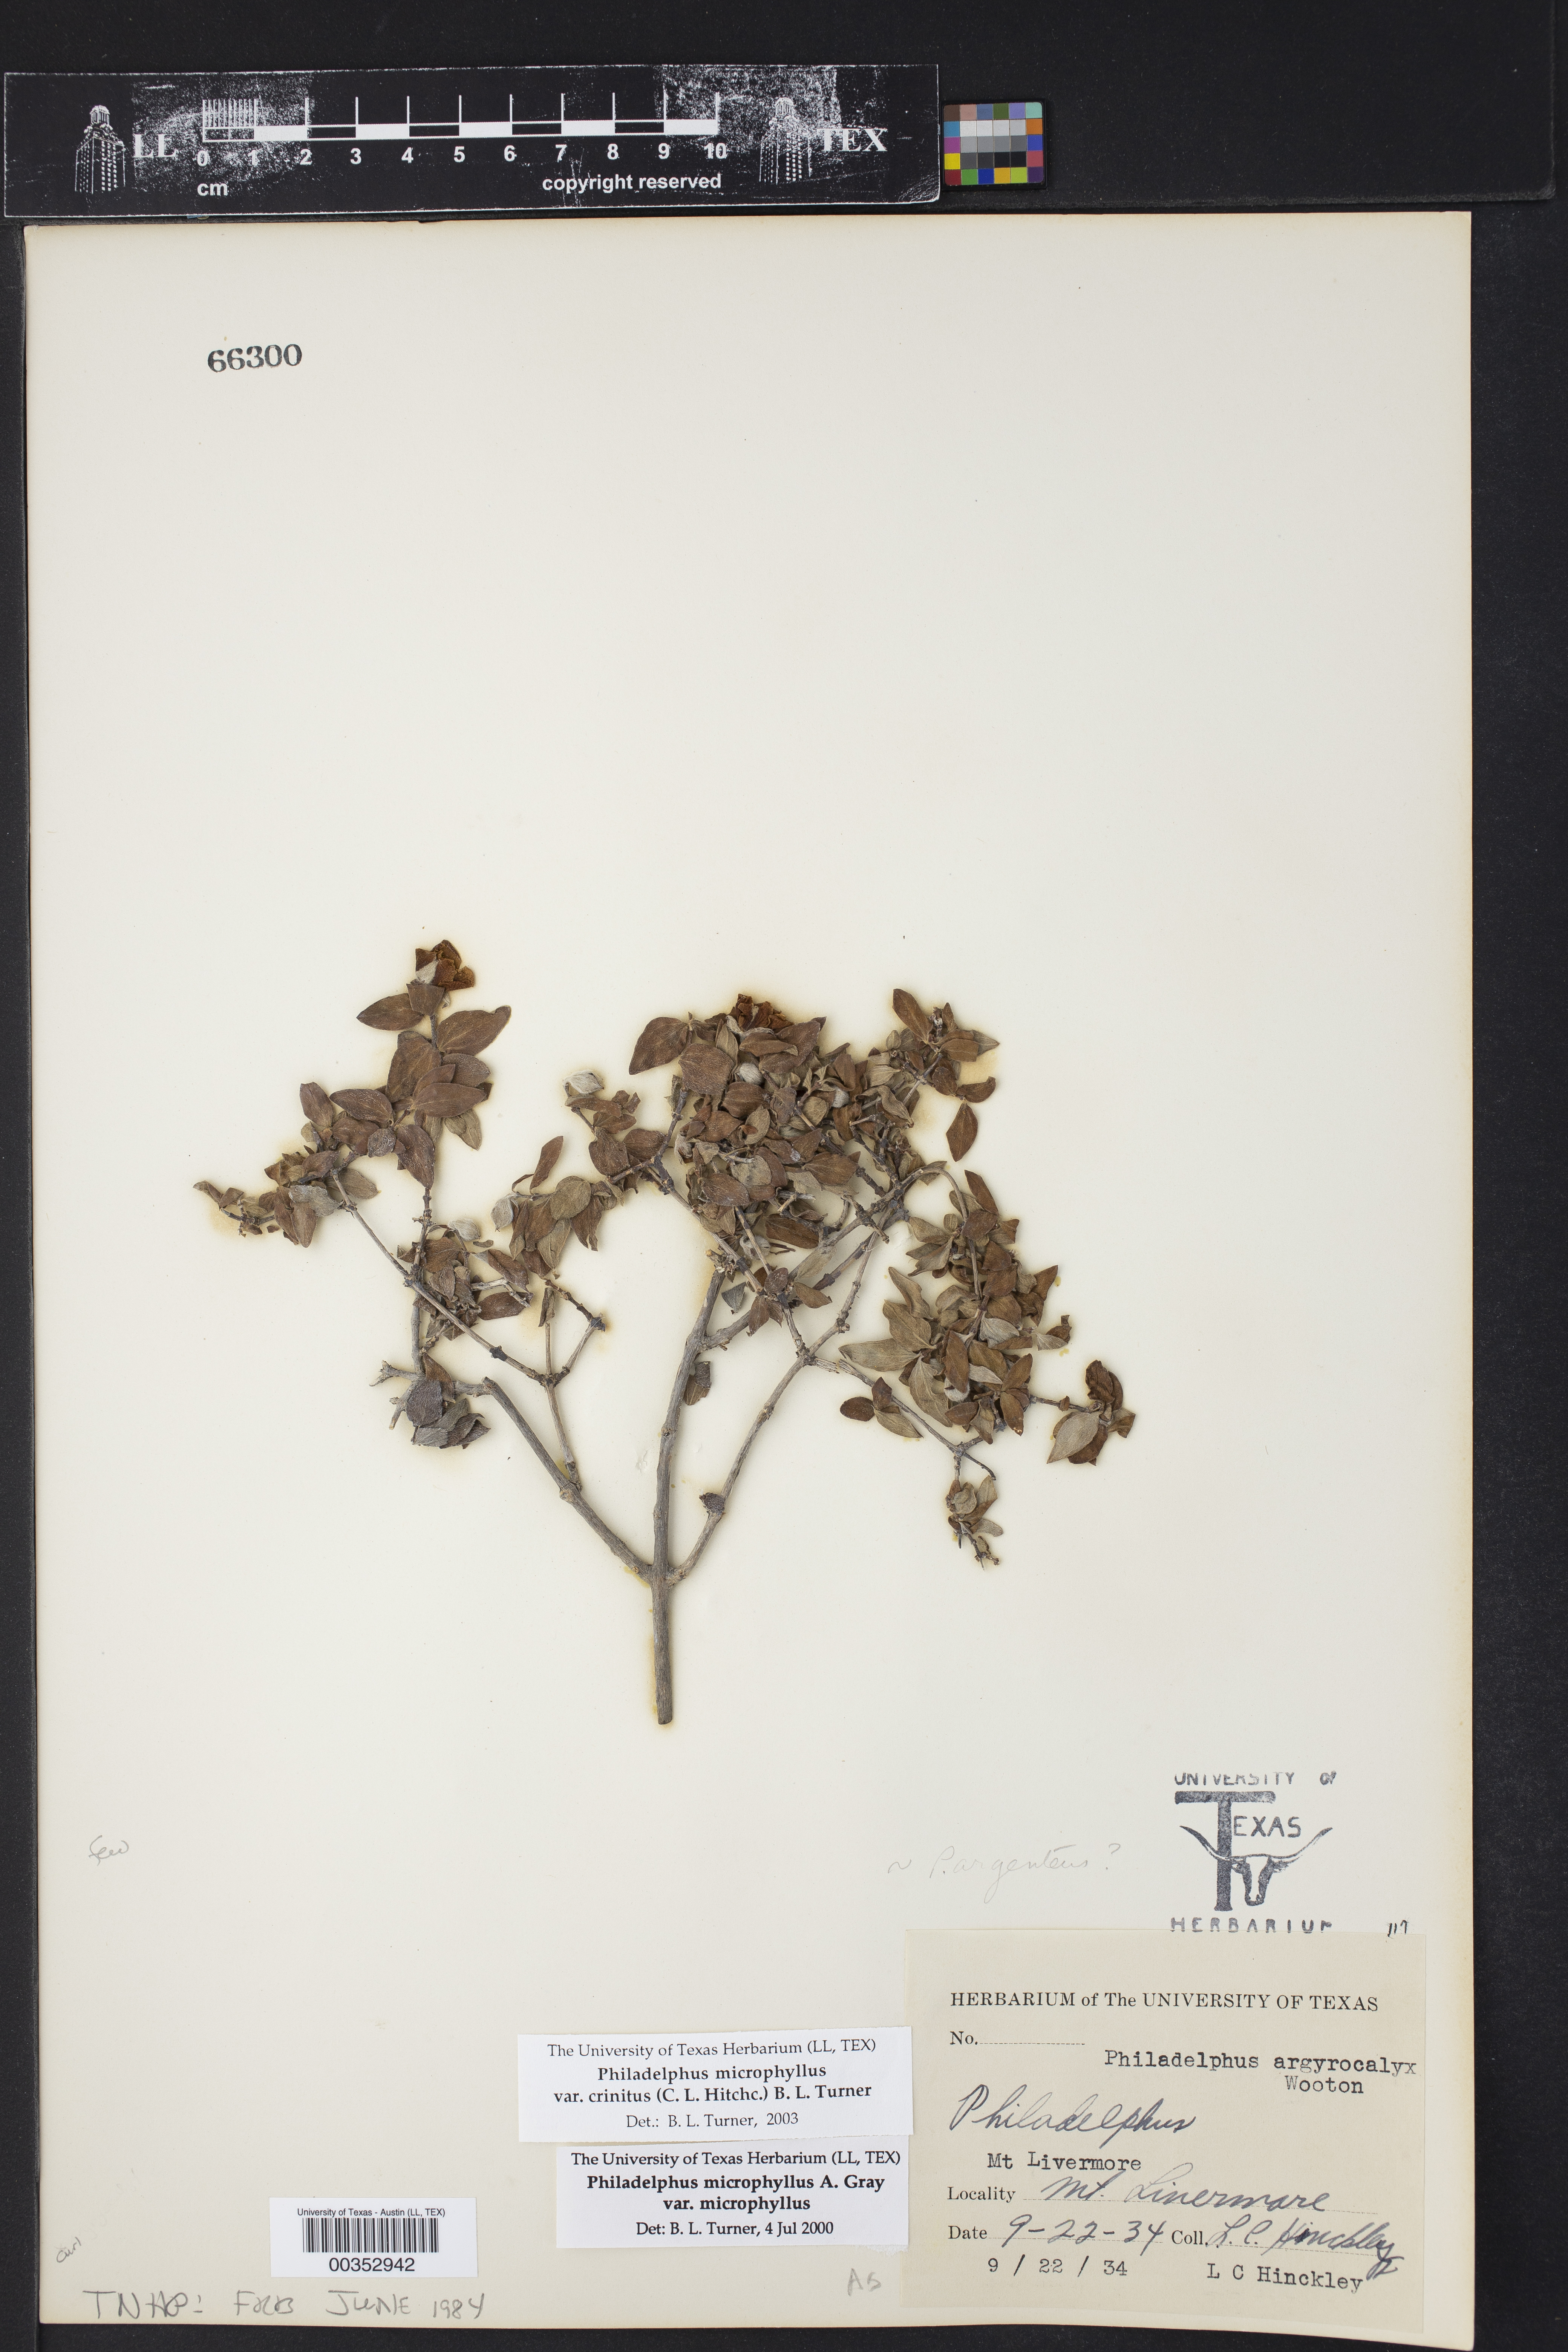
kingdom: Plantae
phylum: Tracheophyta
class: Magnoliopsida
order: Cornales
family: Hydrangeaceae
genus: Philadelphus
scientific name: Philadelphus microphyllus
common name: Desert mock orange
